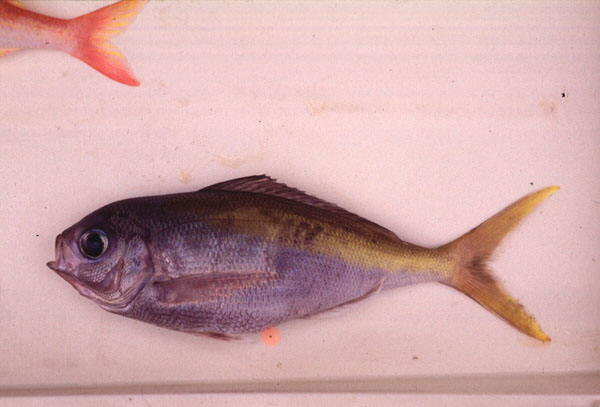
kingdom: Animalia
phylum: Chordata
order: Perciformes
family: Lutjanidae
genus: Paracaesio
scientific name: Paracaesio xanthura
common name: Yellowtail blue snapper
